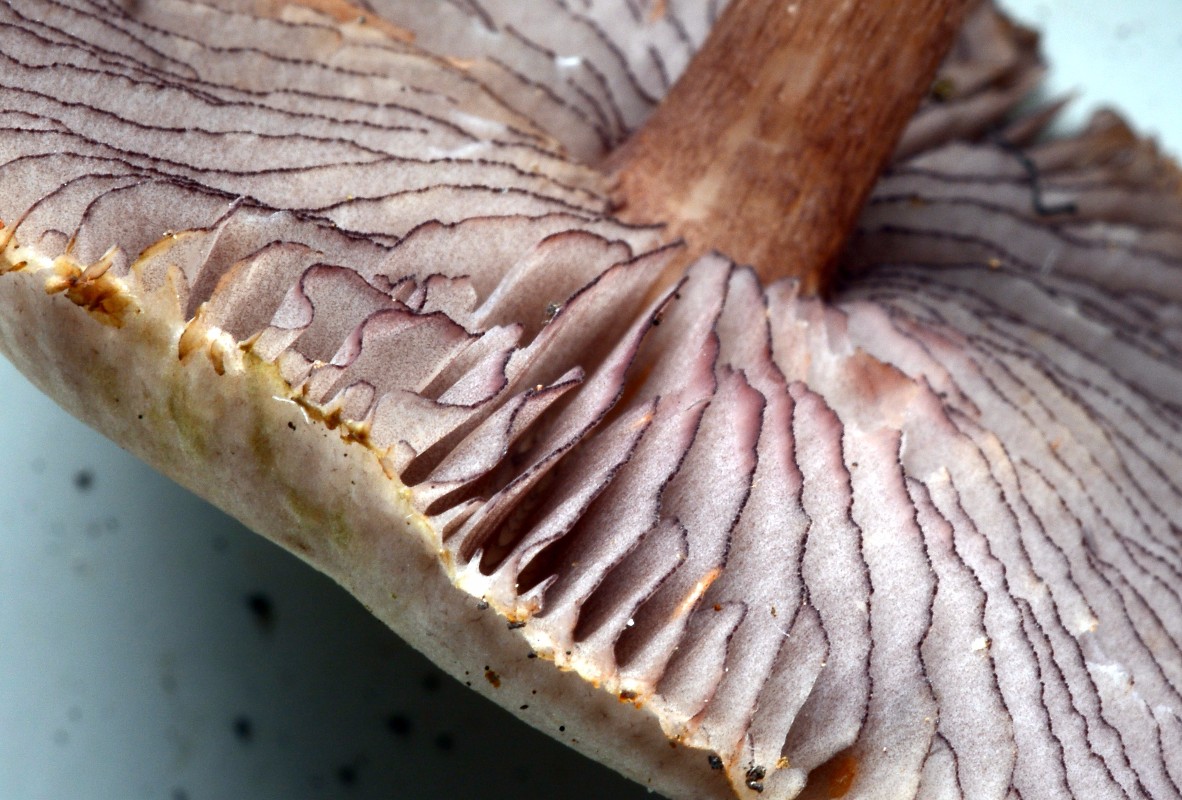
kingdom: Fungi
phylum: Basidiomycota
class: Agaricomycetes
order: Agaricales
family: Mycenaceae
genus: Mycena
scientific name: Mycena pelianthina
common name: mørkbladet huesvamp
